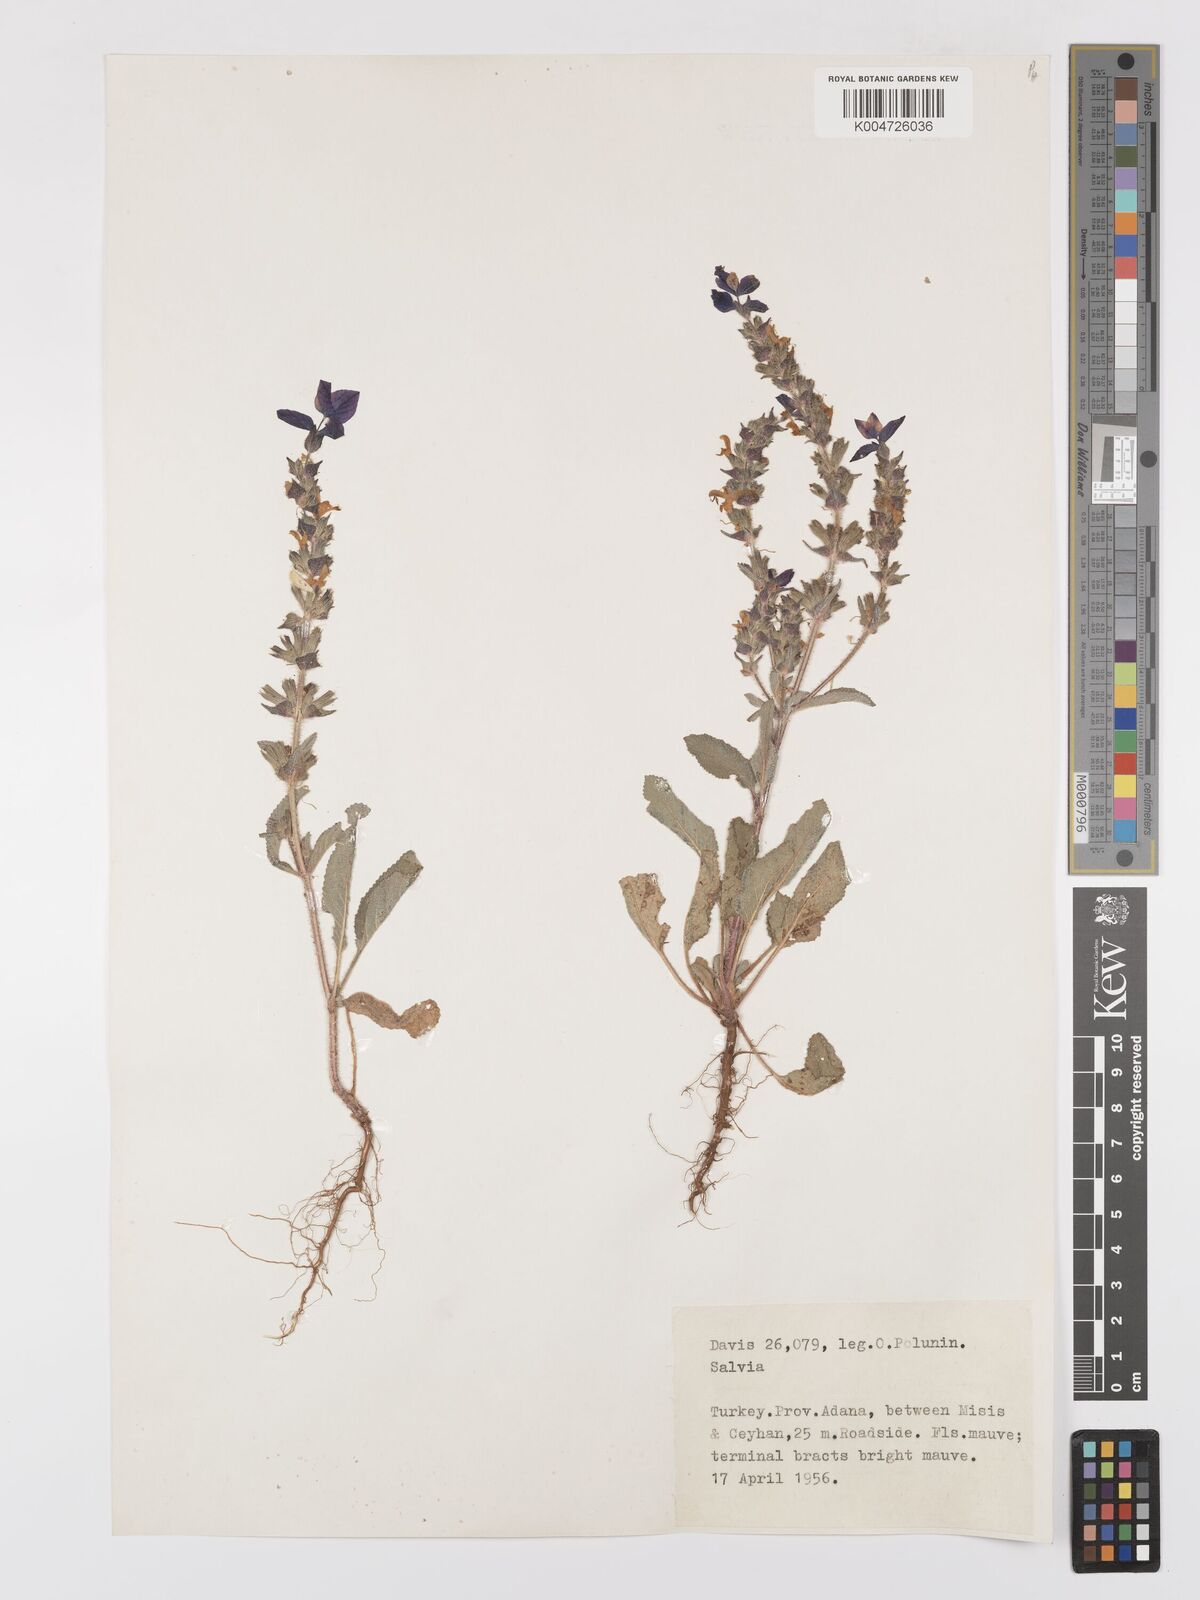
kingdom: Plantae
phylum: Tracheophyta
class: Magnoliopsida
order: Lamiales
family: Lamiaceae
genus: Salvia
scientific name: Salvia viridis
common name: Annual clary
